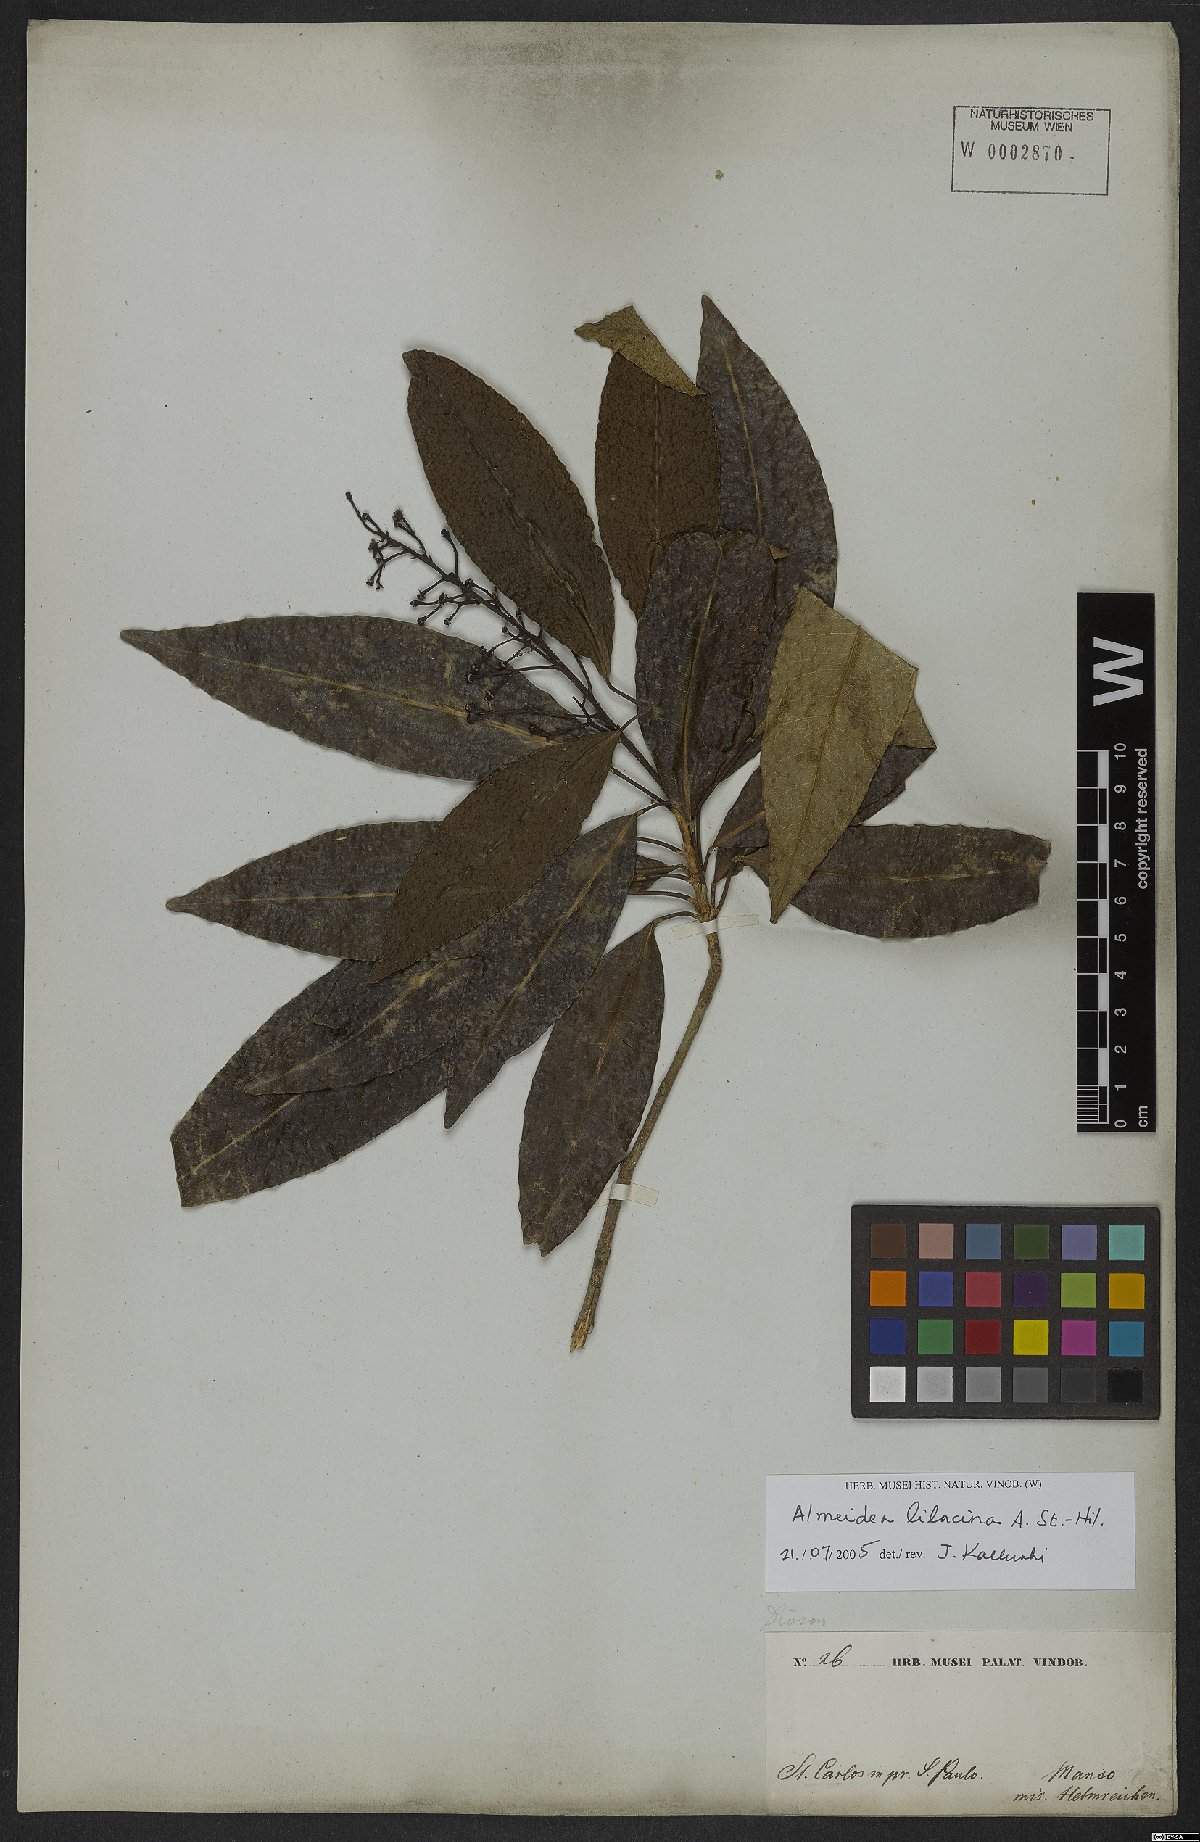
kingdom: Plantae
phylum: Tracheophyta
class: Magnoliopsida
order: Sapindales
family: Rutaceae
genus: Conchocarpus
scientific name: Conchocarpus lilacinus
